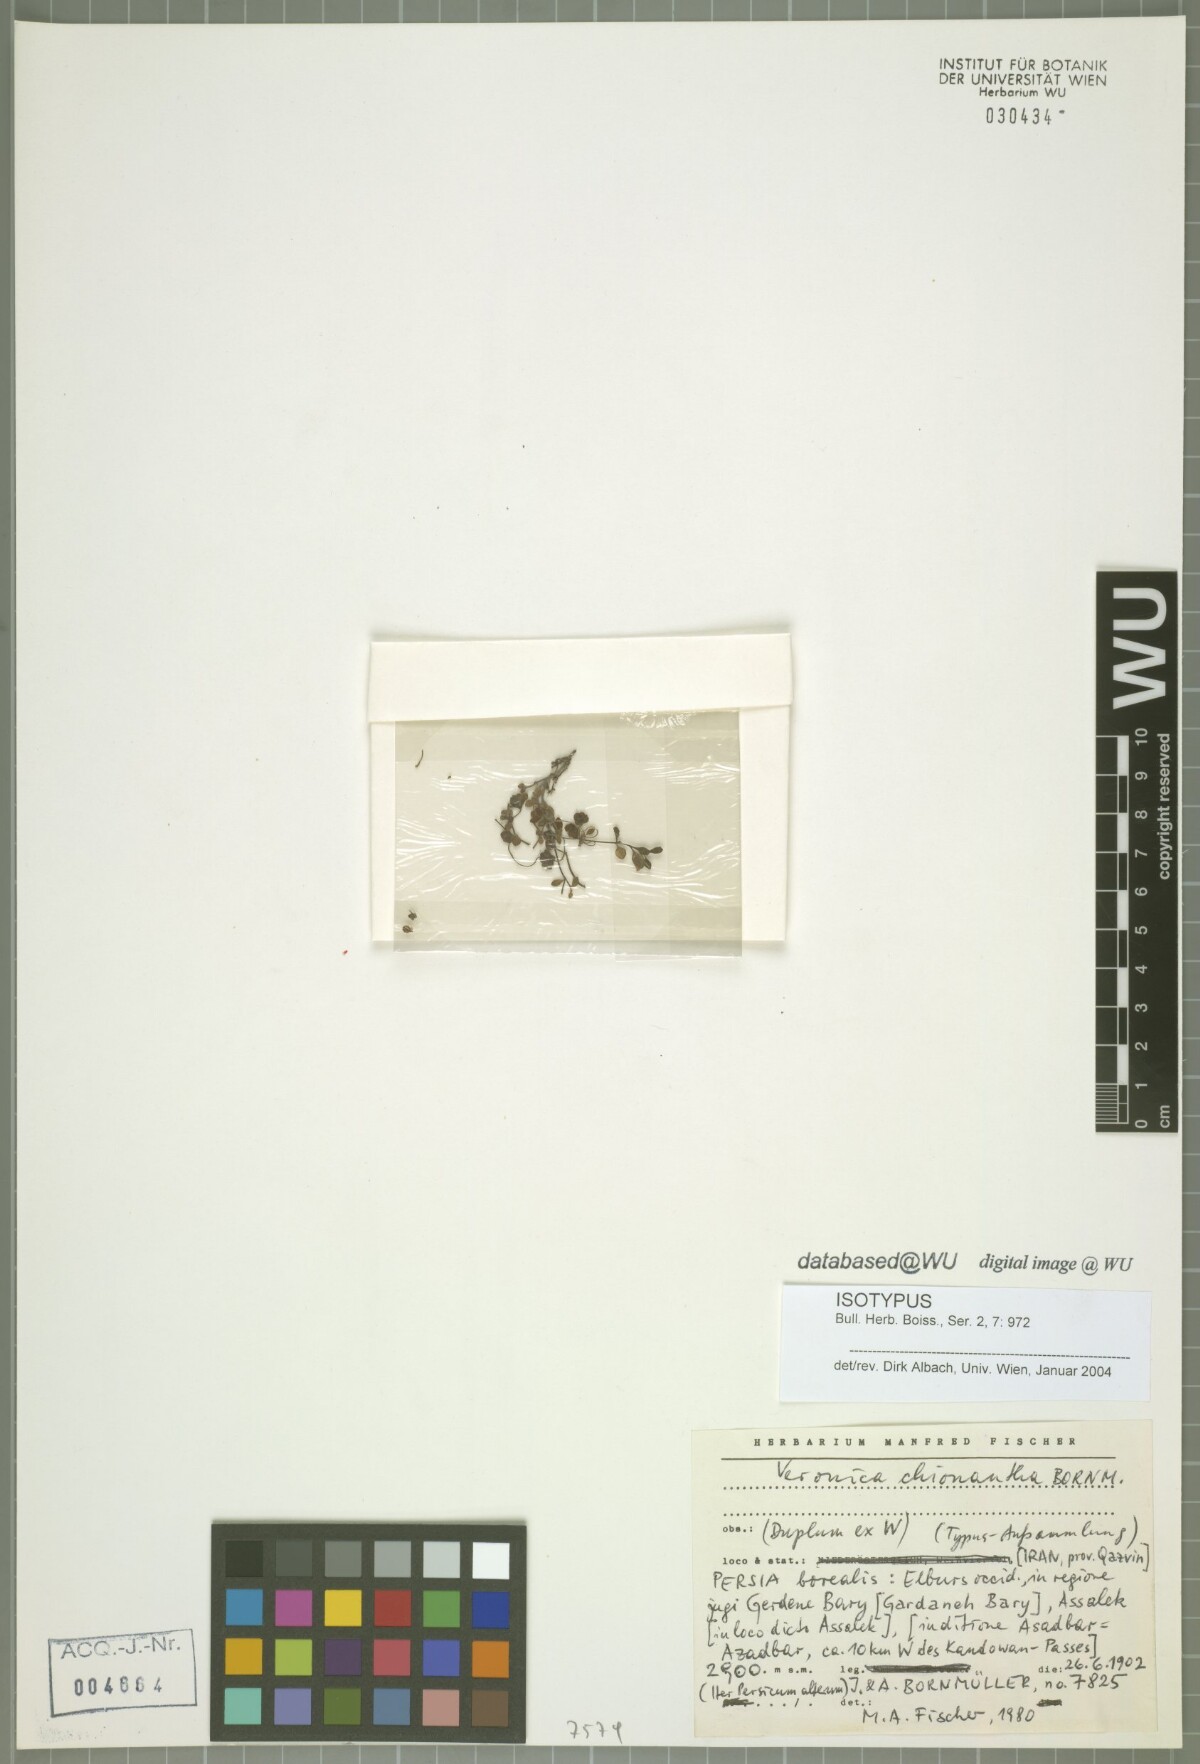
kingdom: Plantae
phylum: Tracheophyta
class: Magnoliopsida
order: Lamiales
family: Plantaginaceae
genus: Veronica
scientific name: Veronica chionantha
